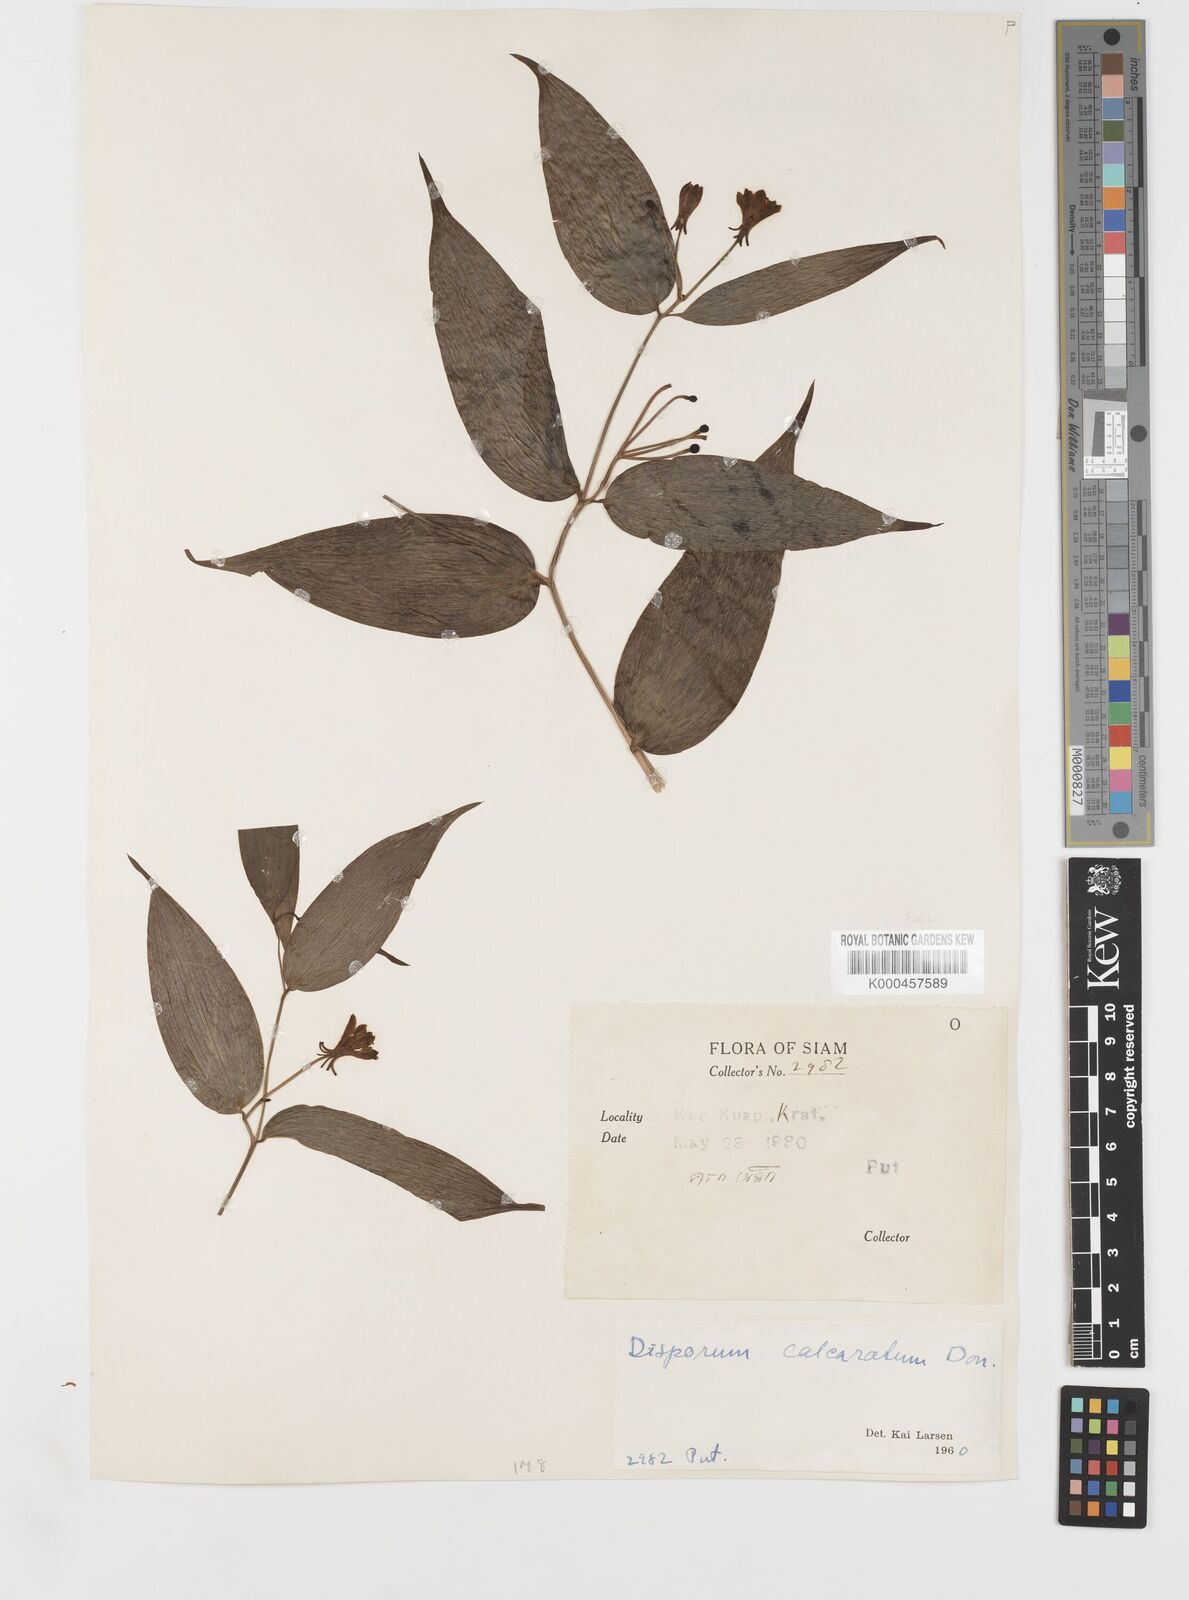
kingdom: Plantae
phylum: Tracheophyta
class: Liliopsida
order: Liliales
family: Colchicaceae
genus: Disporum
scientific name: Disporum calcaratum
